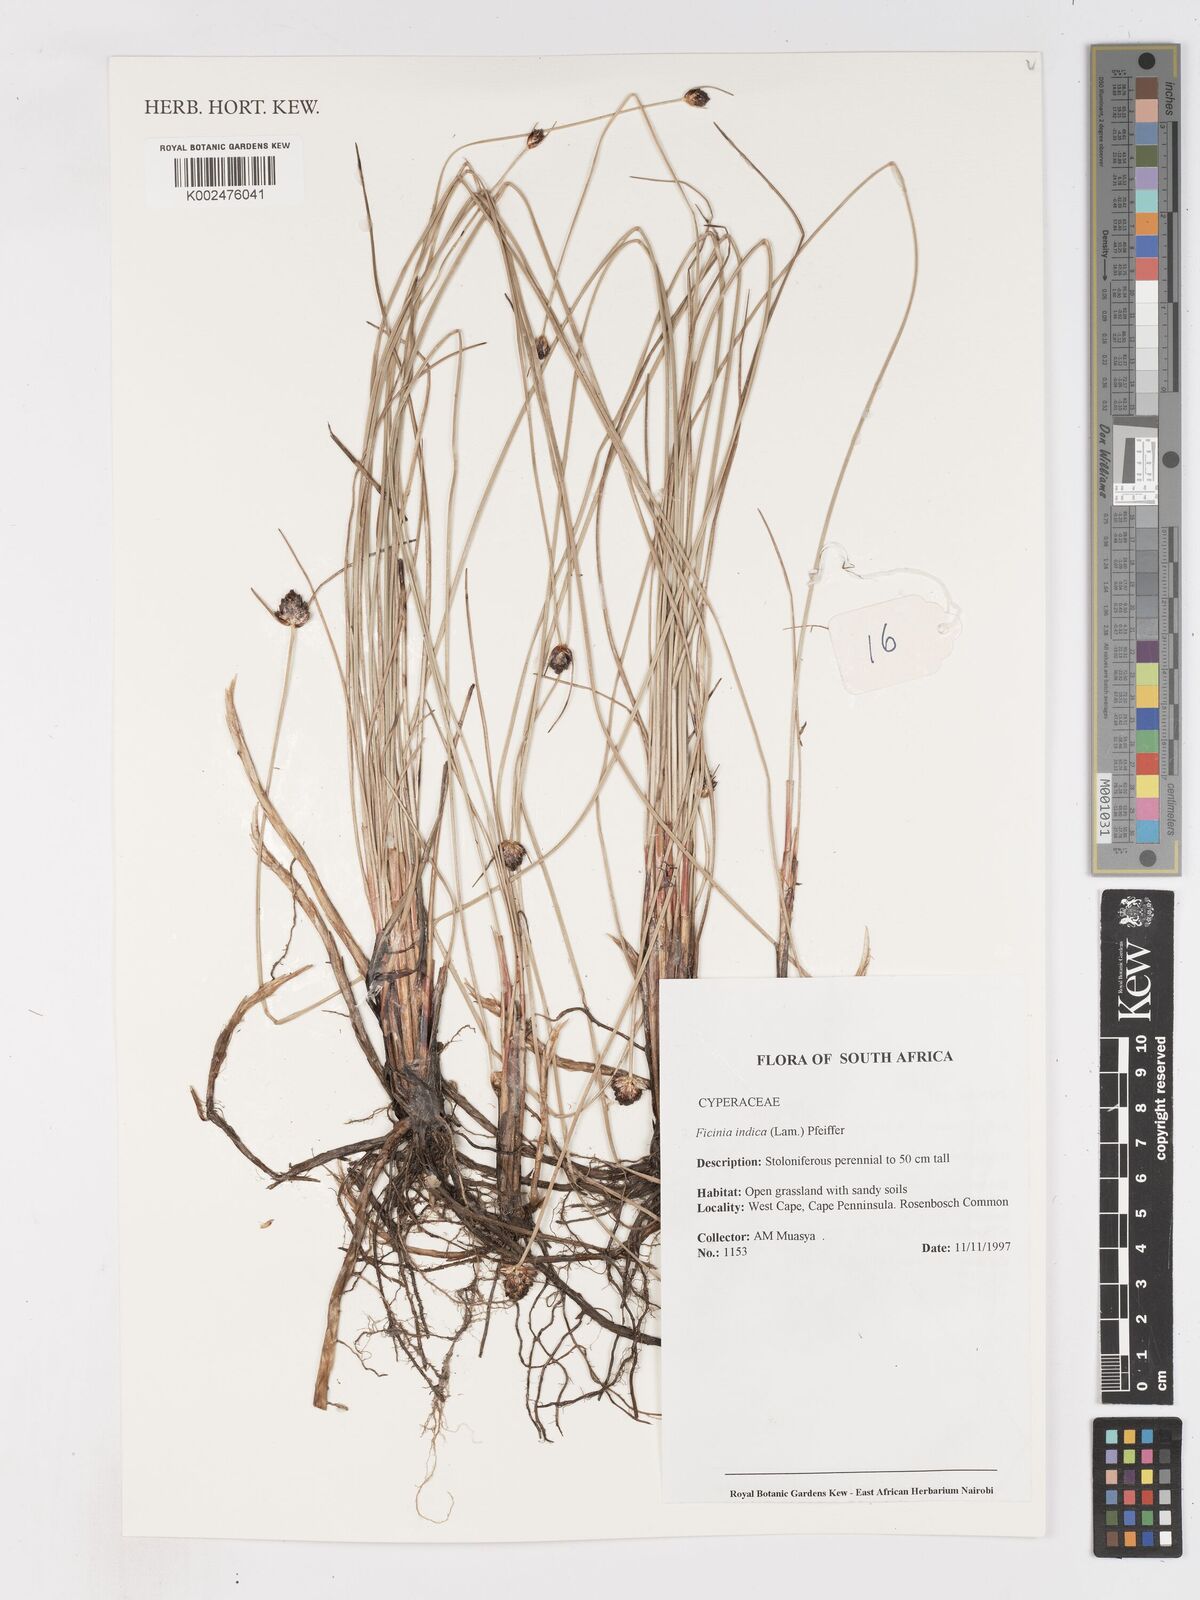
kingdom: Plantae
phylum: Tracheophyta
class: Liliopsida
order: Poales
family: Cyperaceae
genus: Ficinia
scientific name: Ficinia indica
